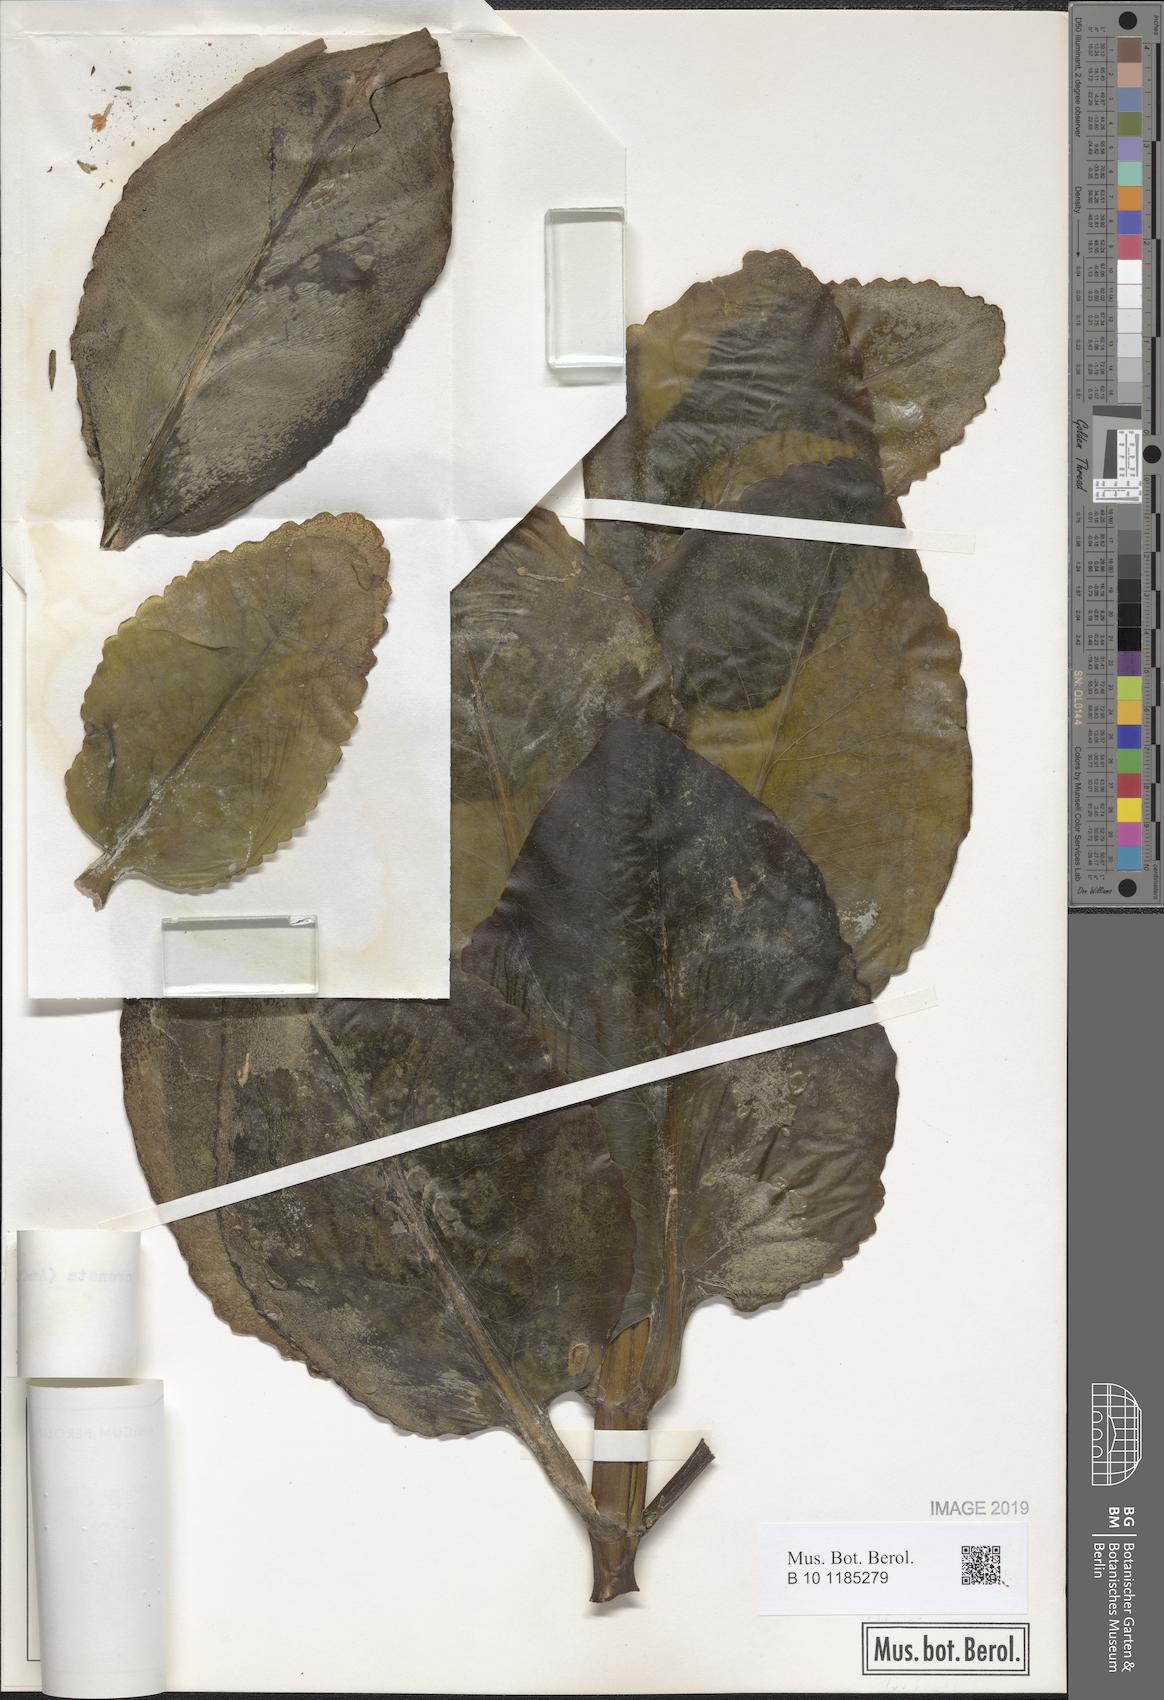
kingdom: Plantae
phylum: Tracheophyta
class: Magnoliopsida
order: Saxifragales
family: Crassulaceae
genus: Kalanchoe
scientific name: Kalanchoe crenata
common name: Neverdie
